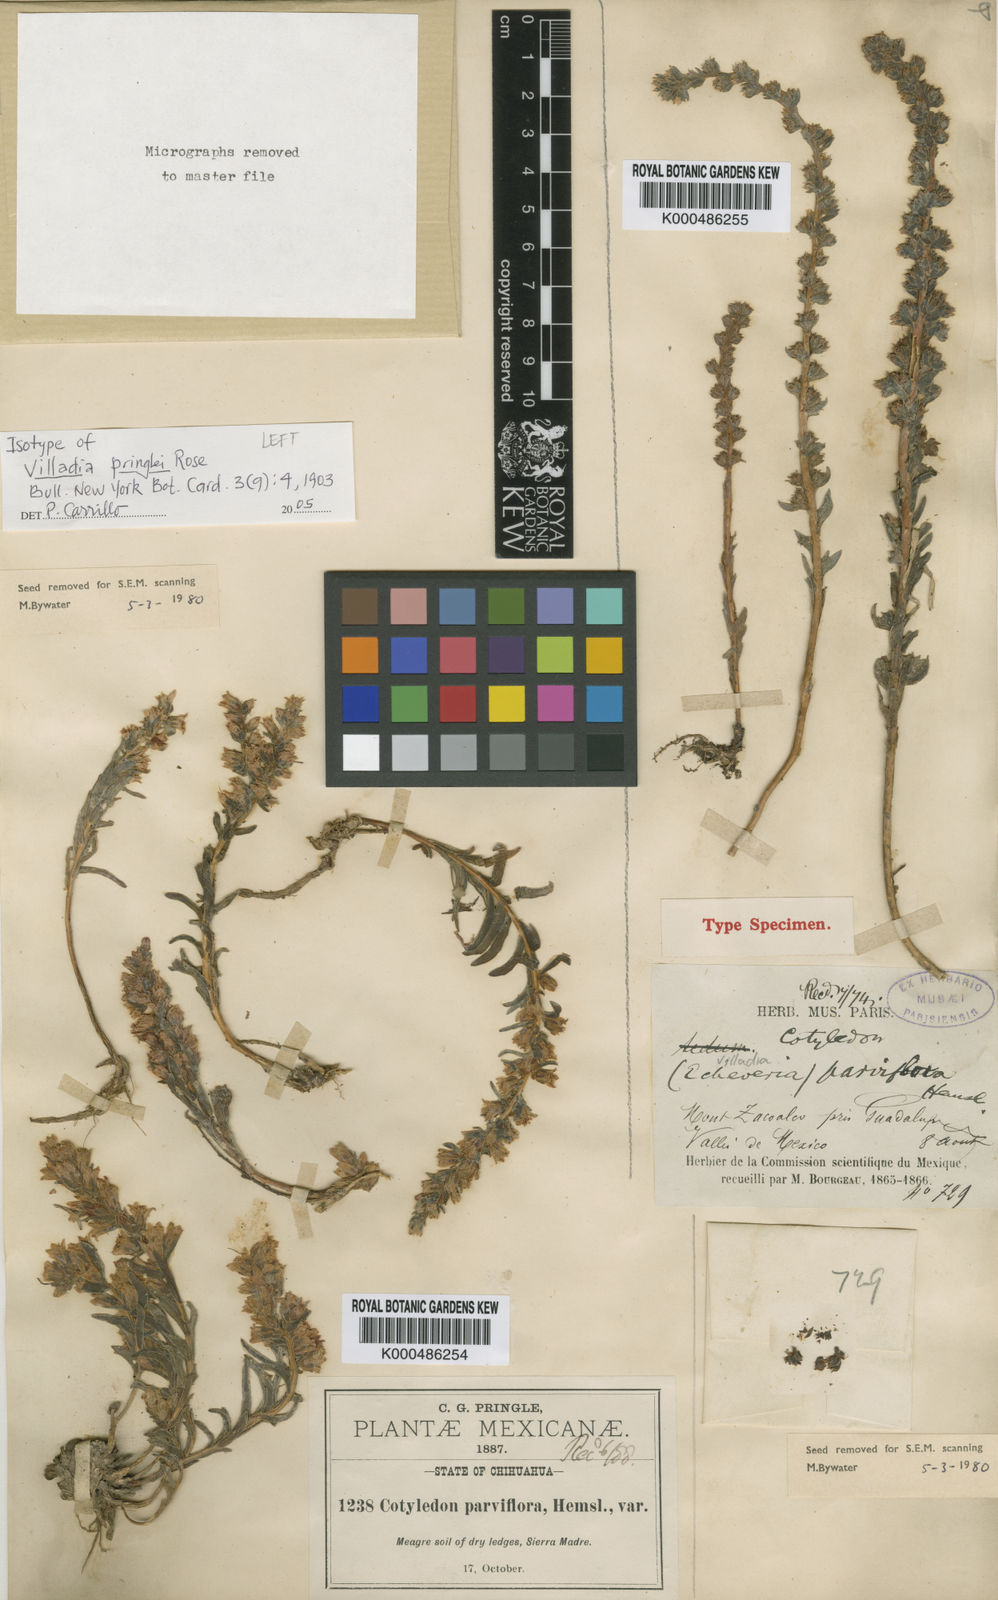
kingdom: Plantae
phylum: Tracheophyta
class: Magnoliopsida
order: Saxifragales
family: Crassulaceae
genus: Villadia
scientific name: Villadia pringlei
